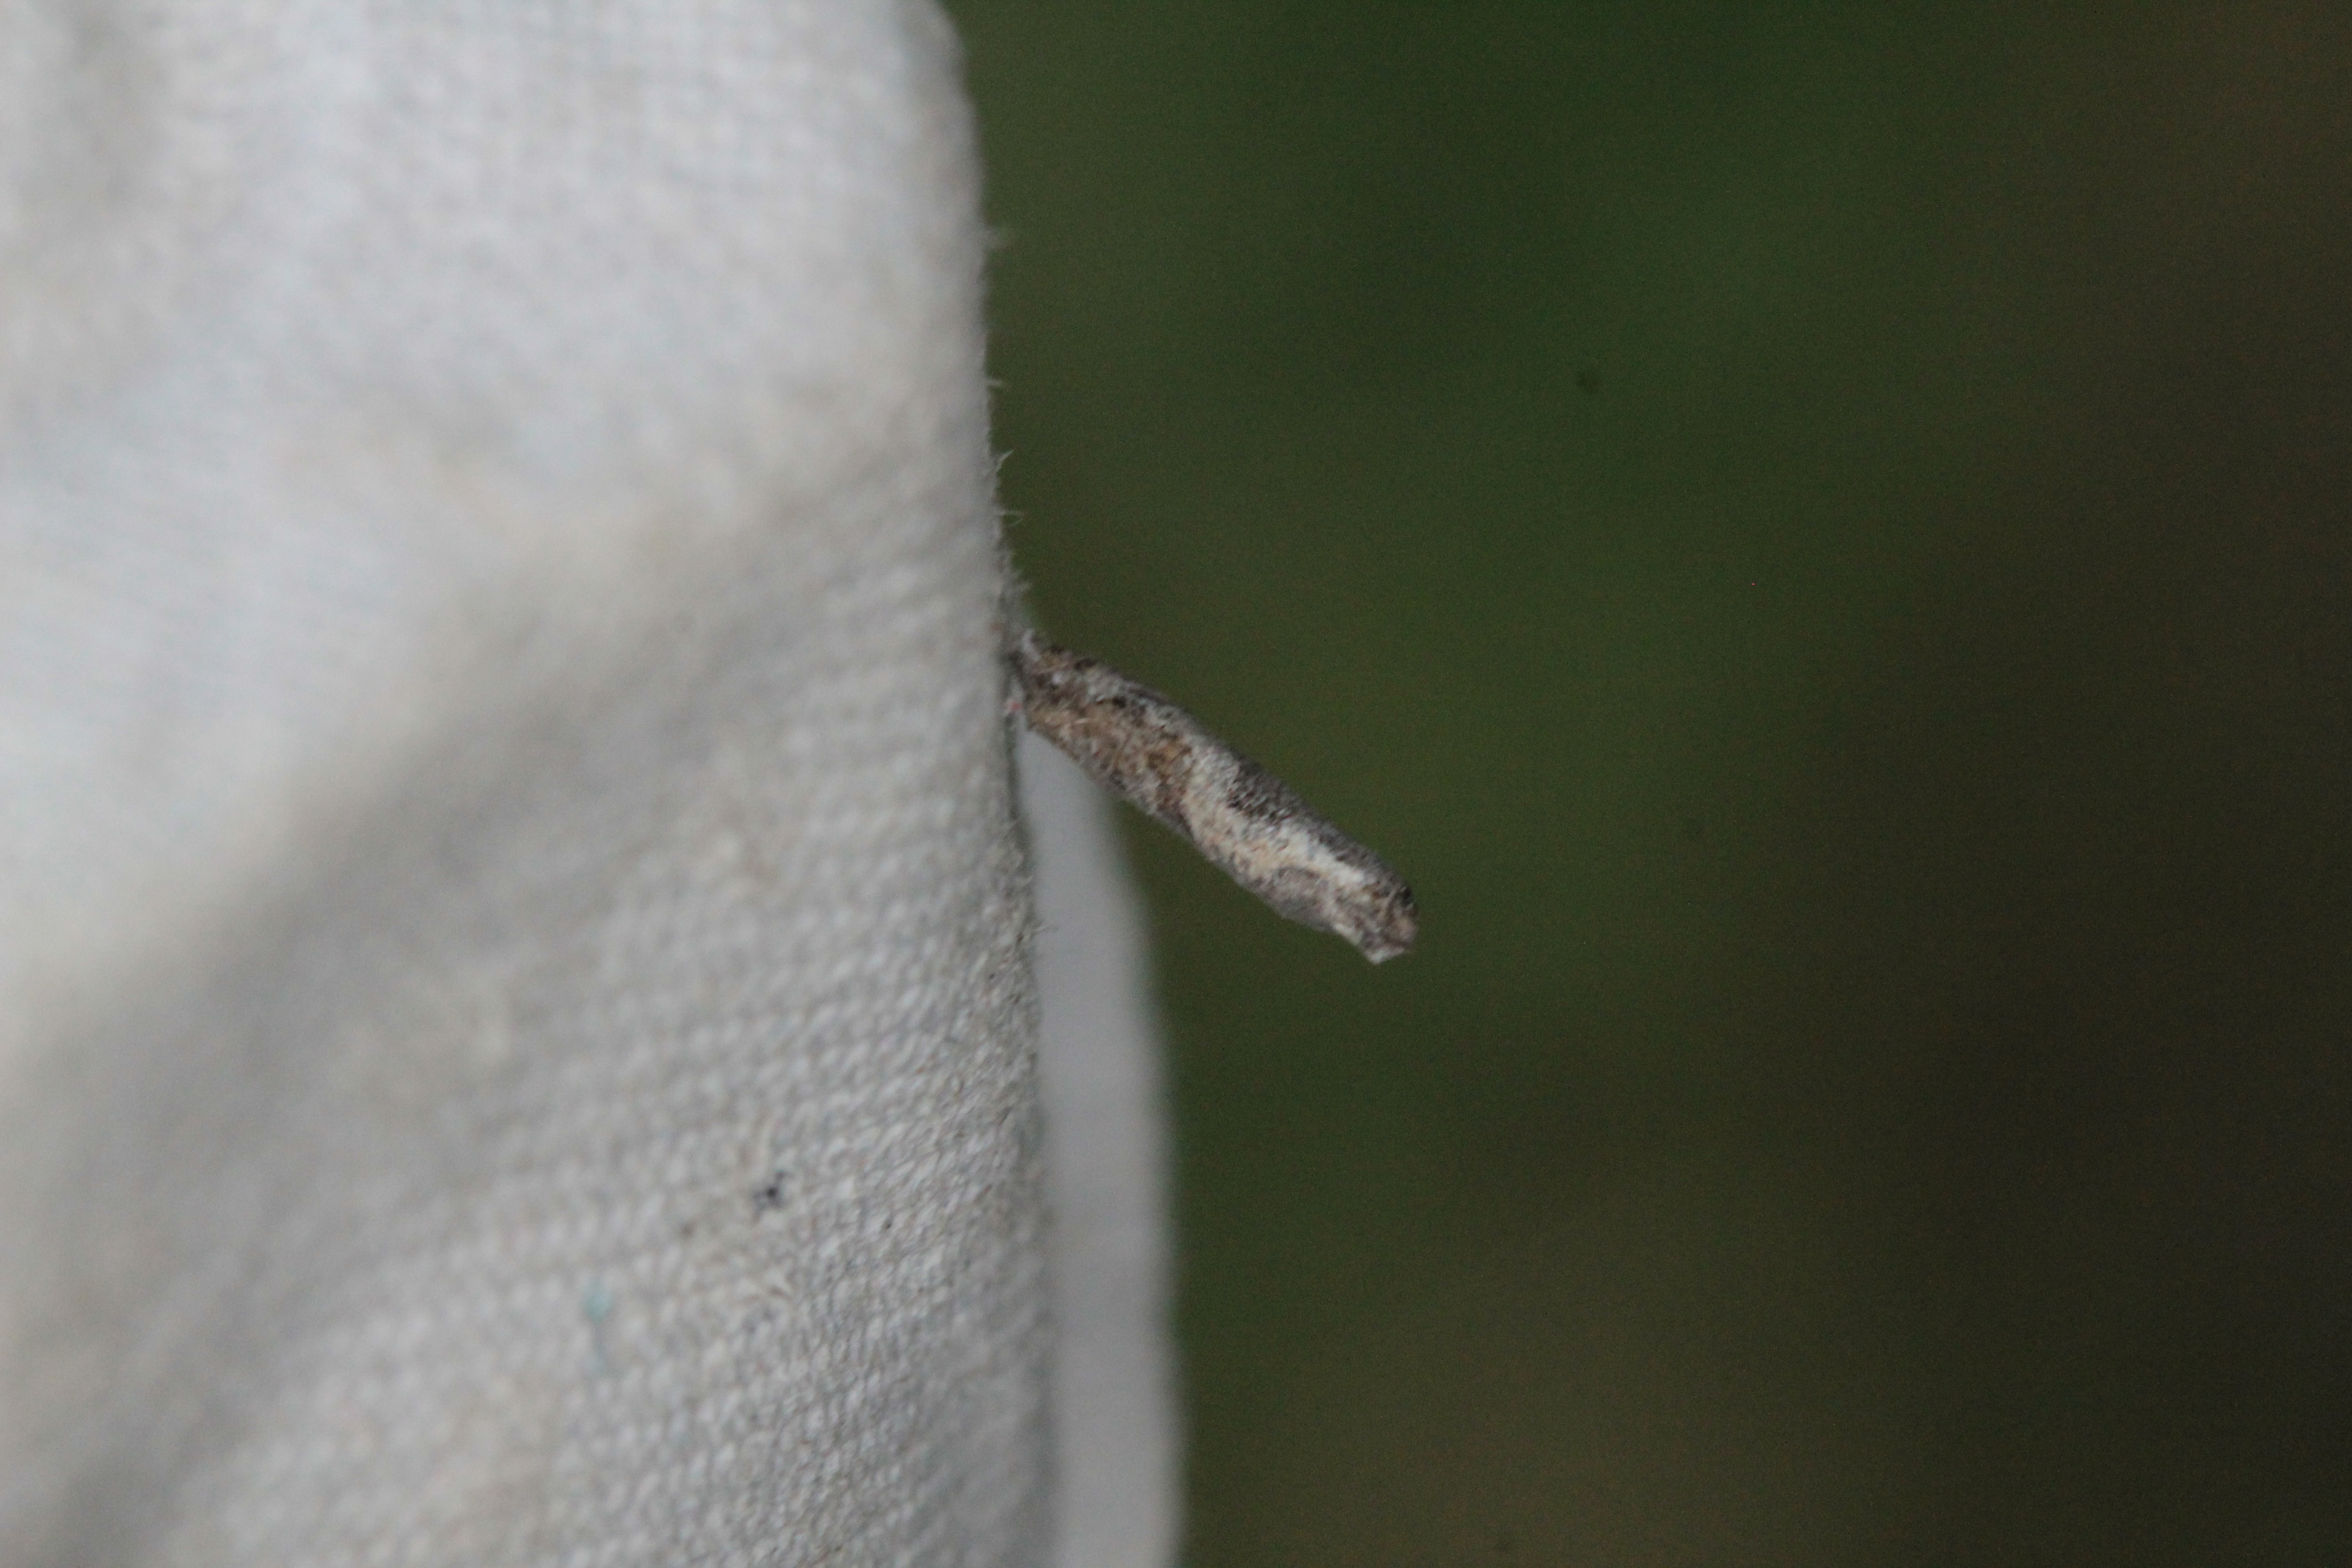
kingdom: Animalia
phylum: Arthropoda
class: Insecta
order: Lepidoptera
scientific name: Lepidoptera
